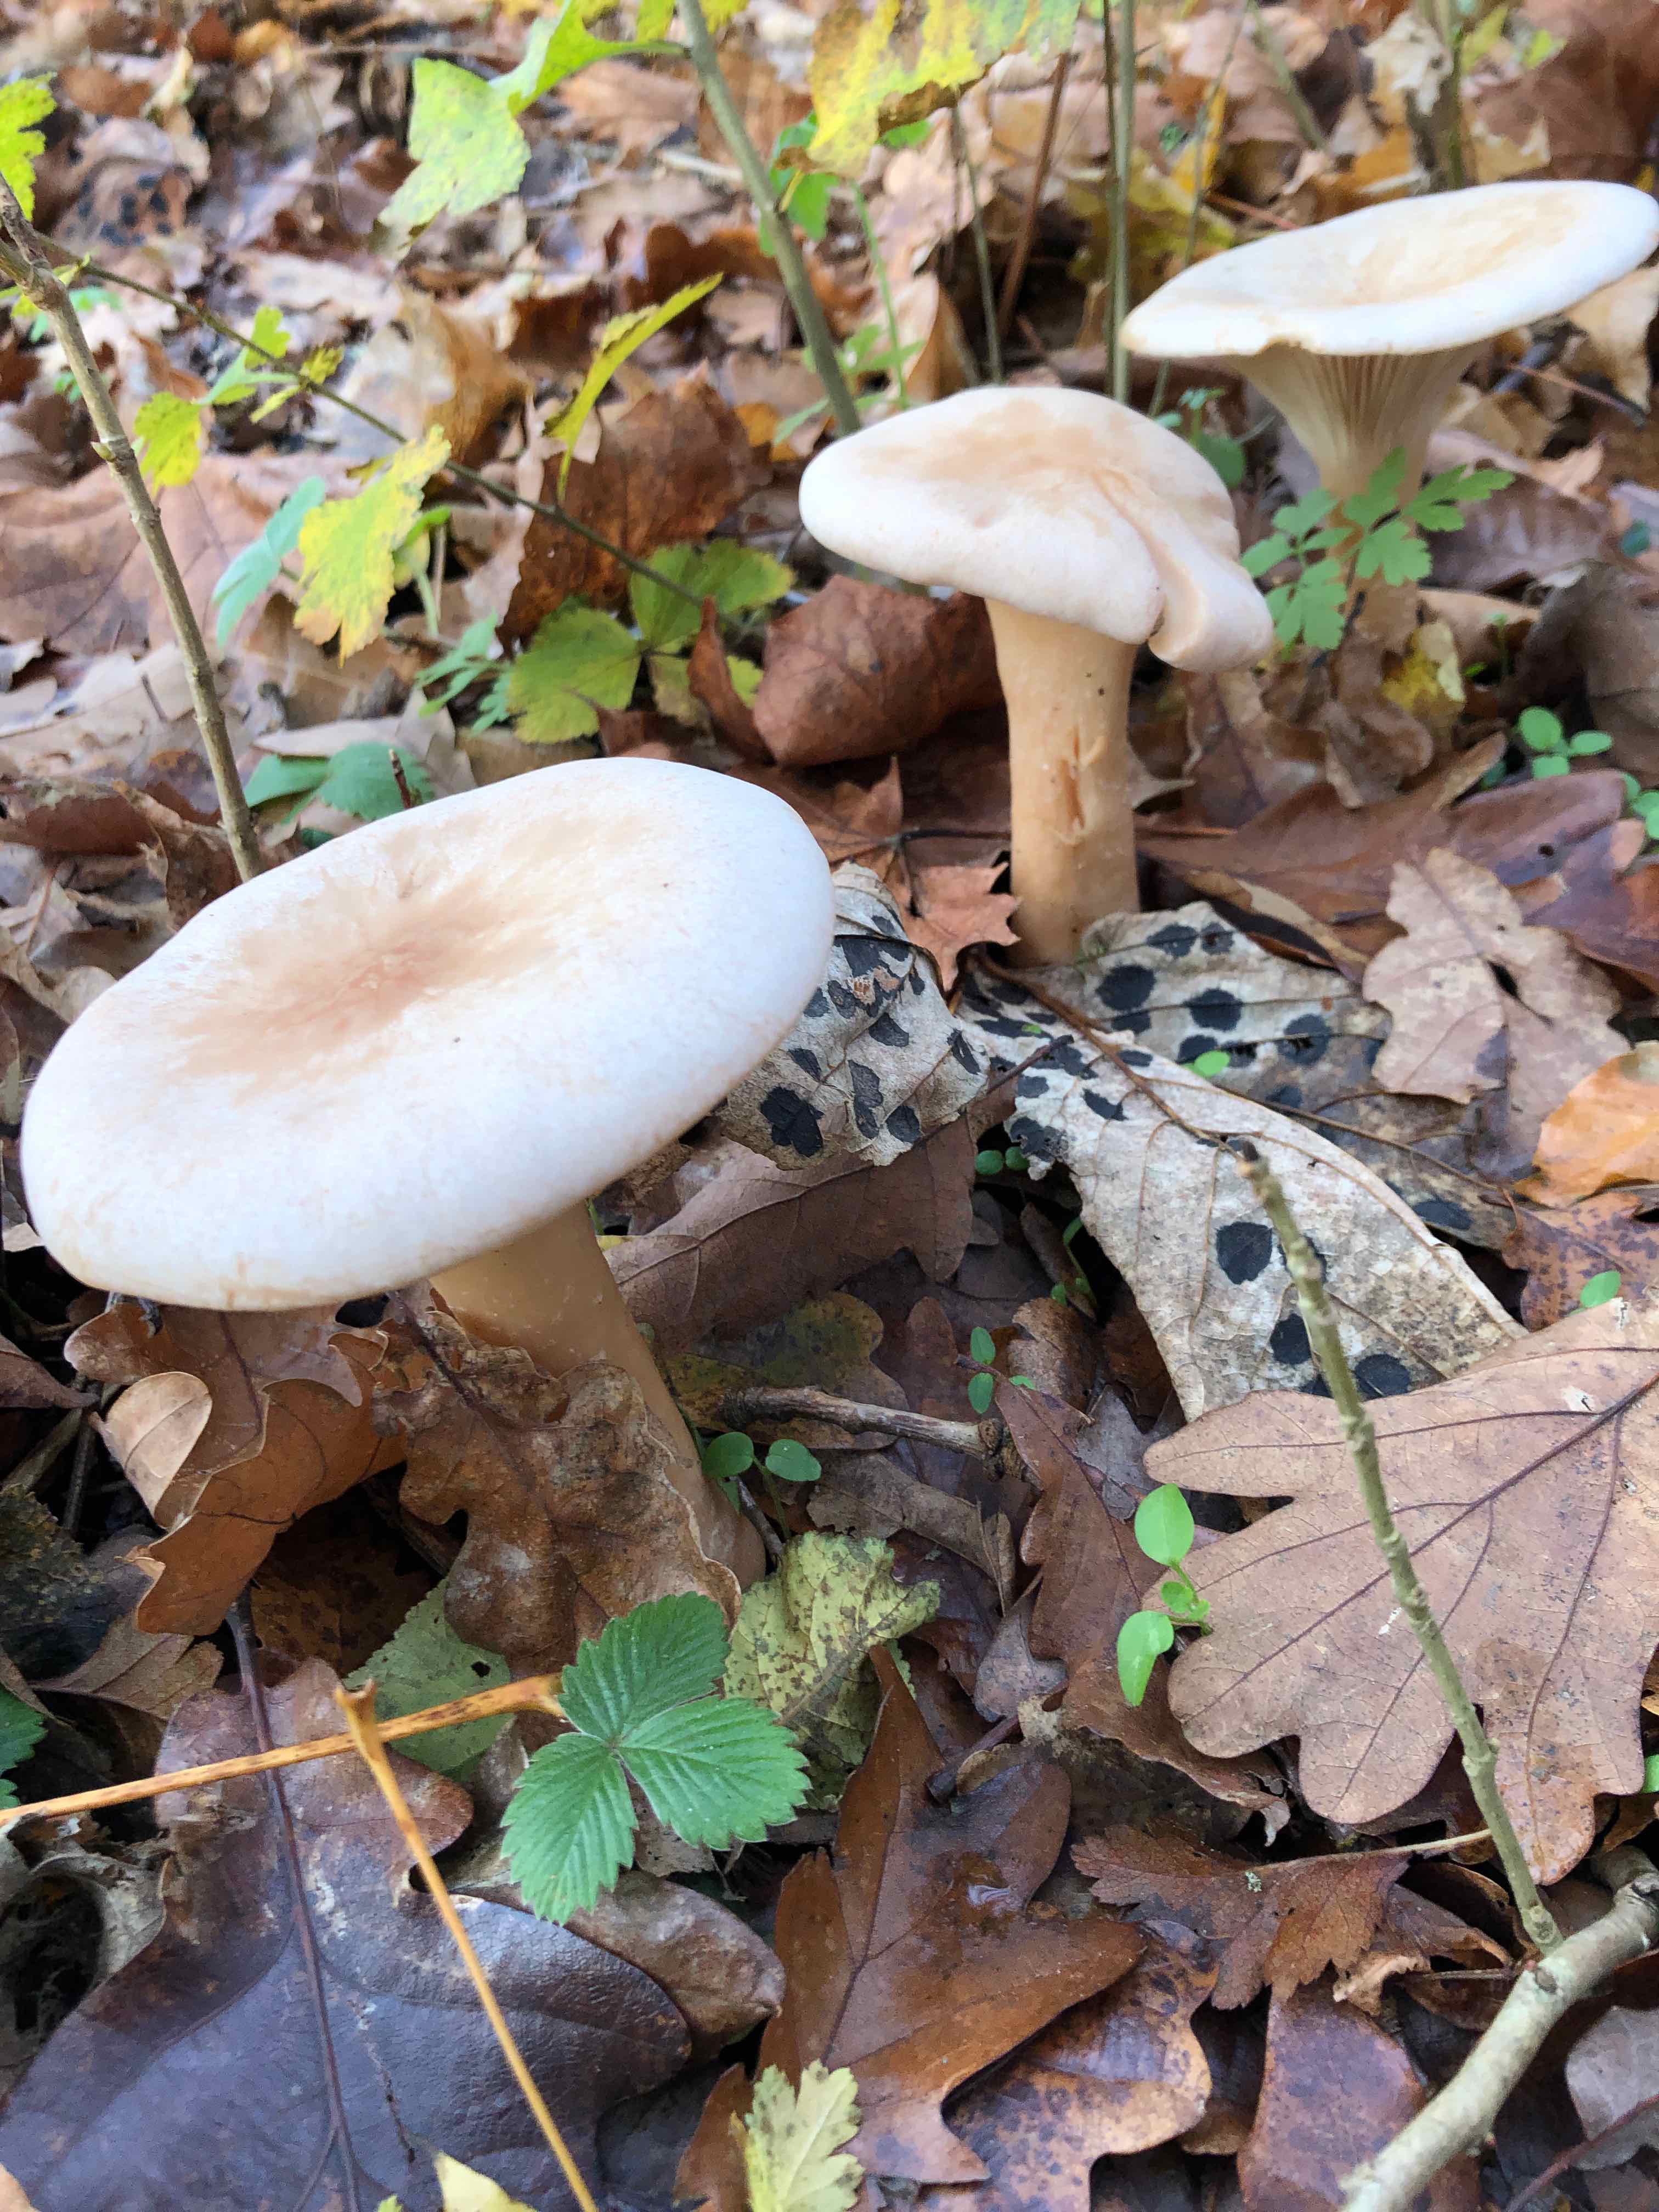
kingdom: Fungi
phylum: Basidiomycota
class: Agaricomycetes
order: Agaricales
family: Tricholomataceae
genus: Infundibulicybe
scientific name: Infundibulicybe geotropa
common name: stor tragthat
